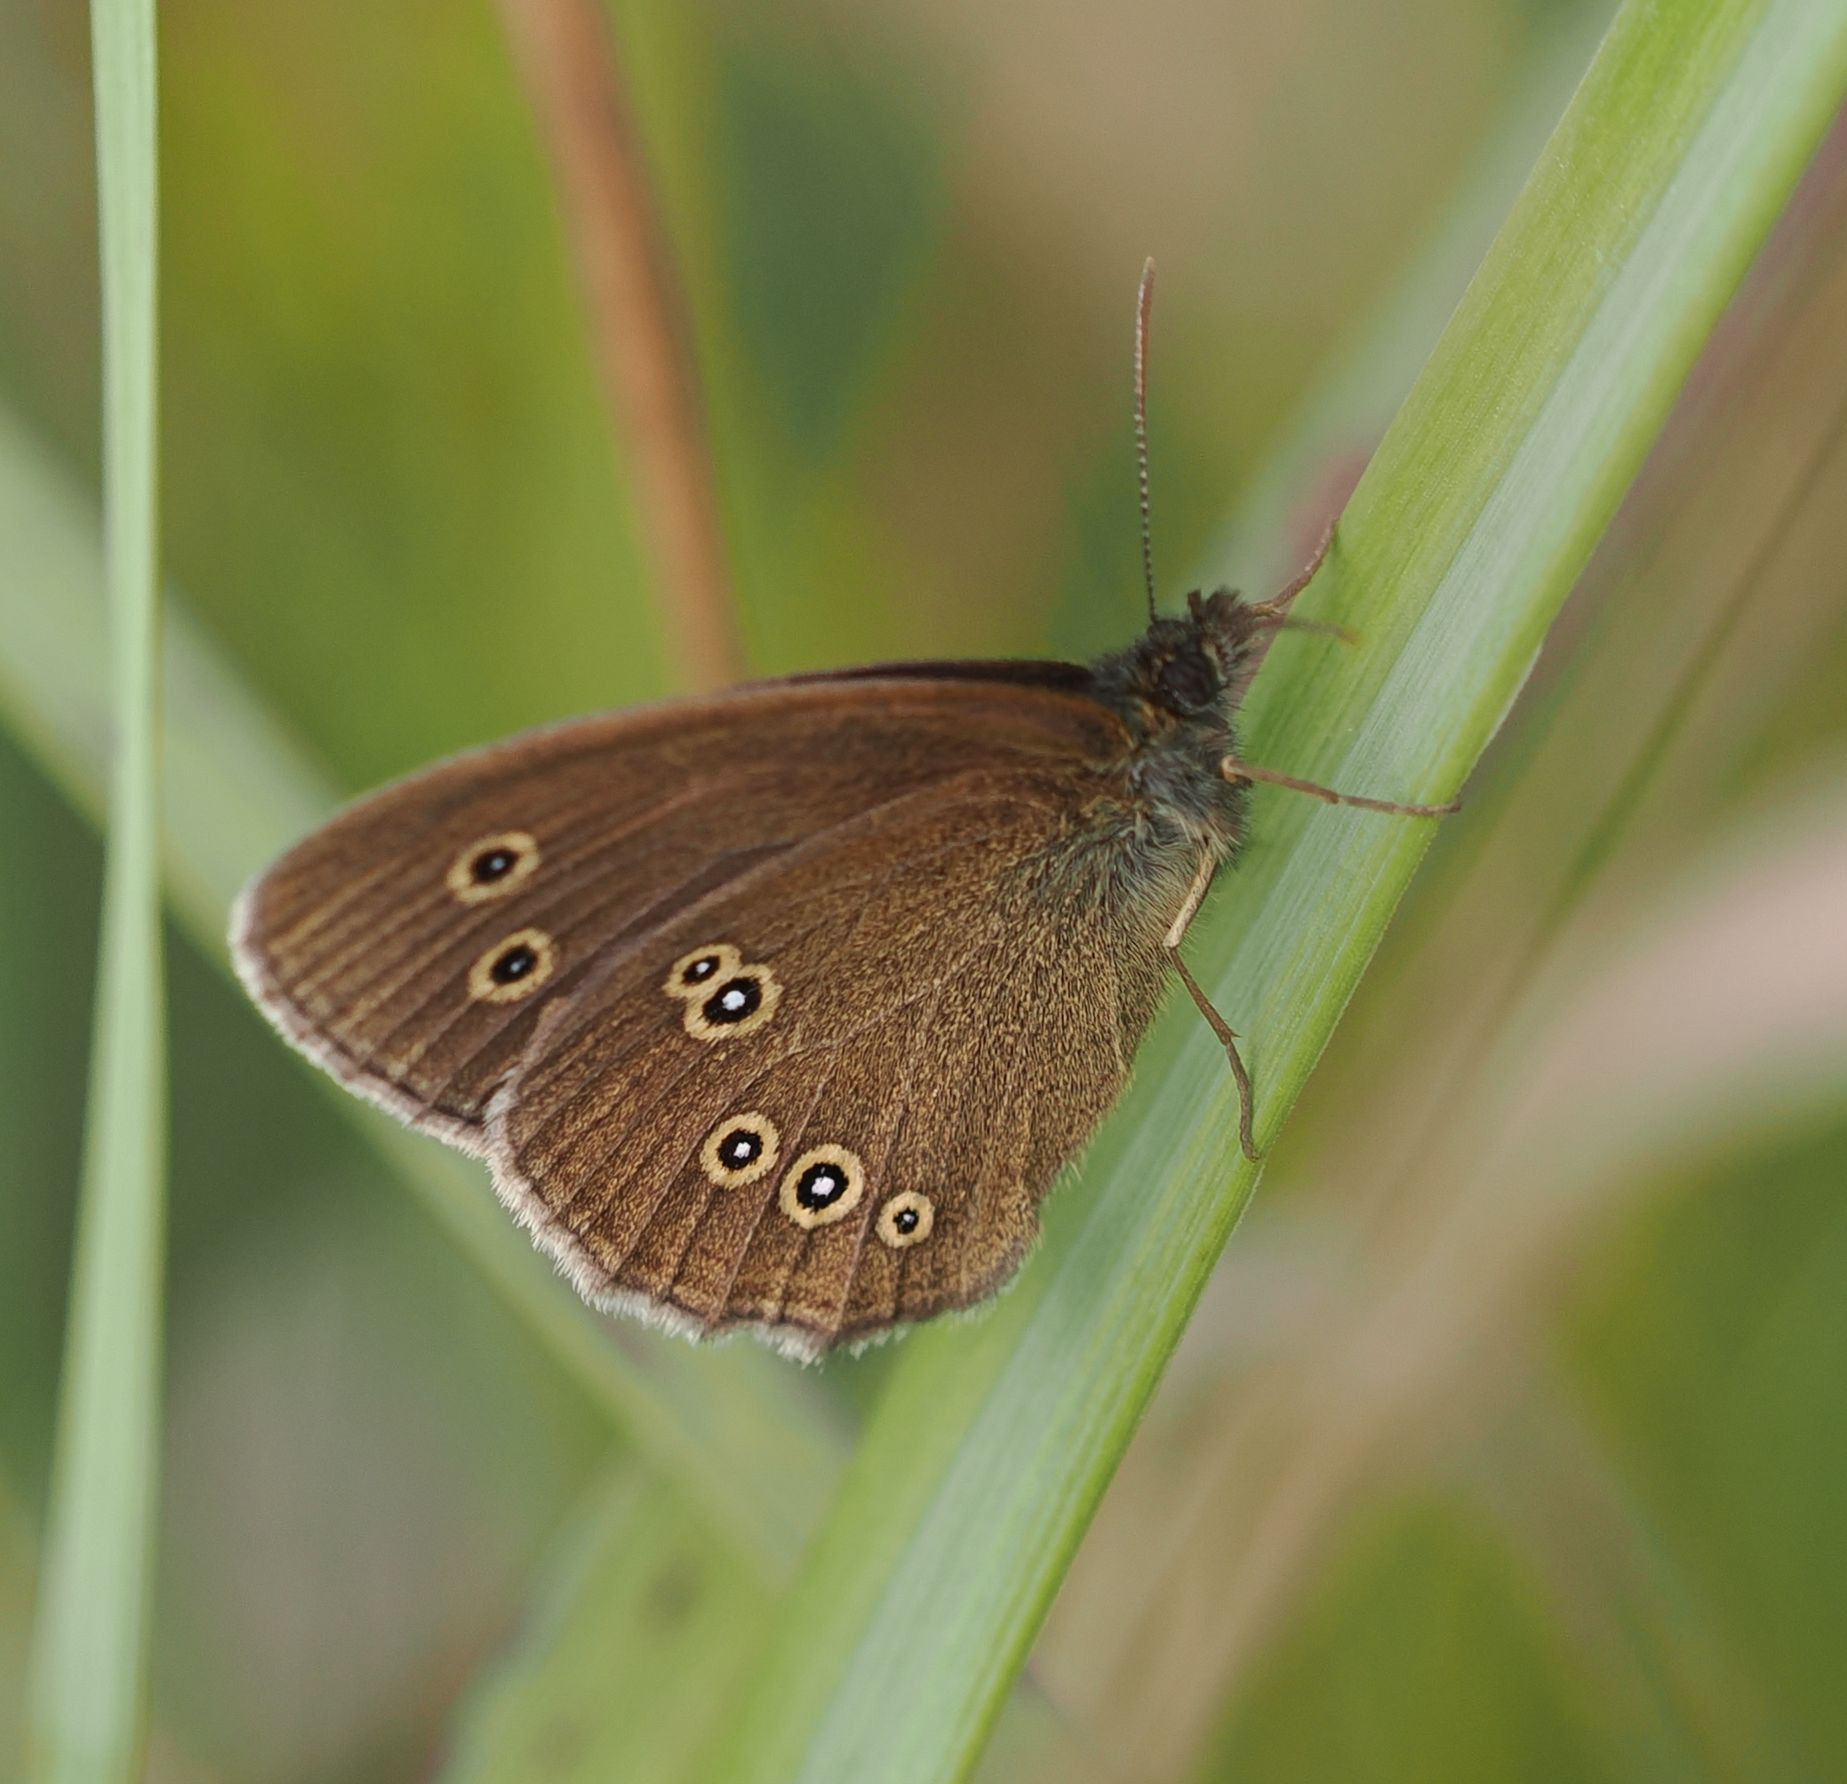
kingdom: Animalia
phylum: Arthropoda
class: Insecta
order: Lepidoptera
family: Nymphalidae
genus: Aphantopus
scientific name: Aphantopus hyperantus
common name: Engrandøje
